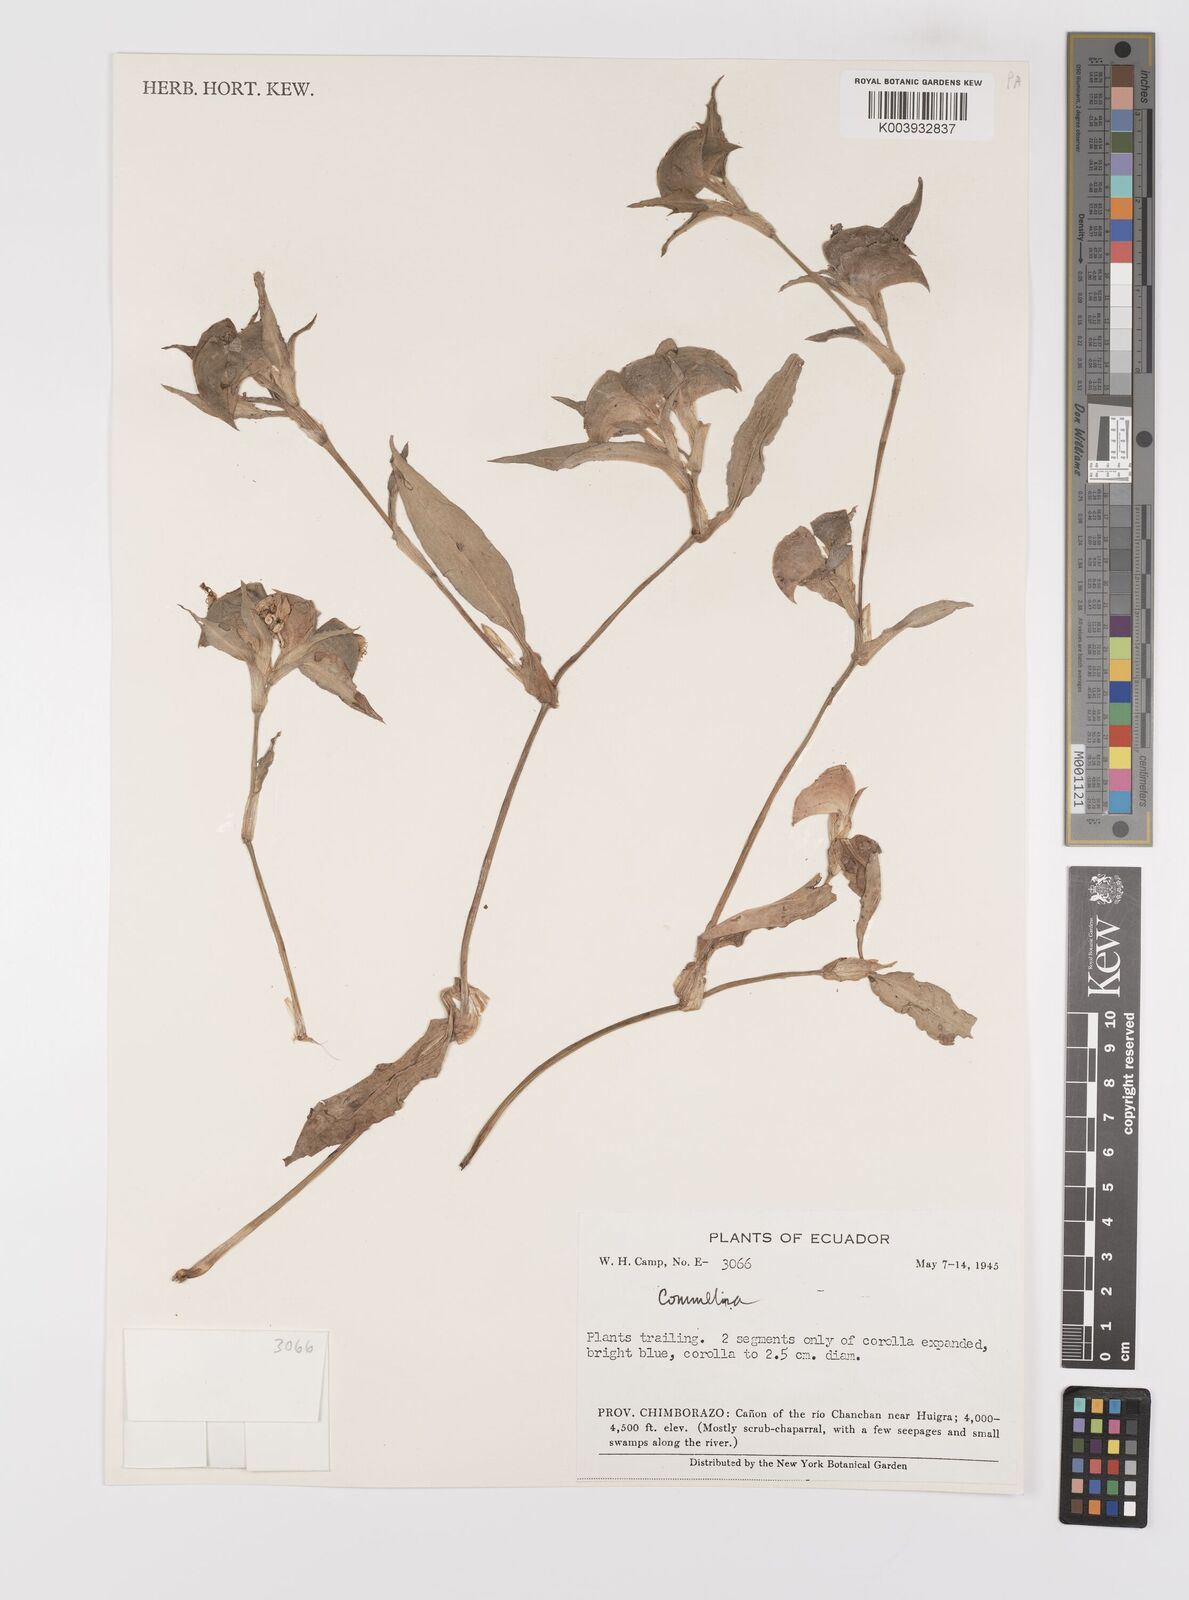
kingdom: Plantae
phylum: Tracheophyta
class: Liliopsida
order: Commelinales
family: Commelinaceae
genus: Commelina
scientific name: Commelina
